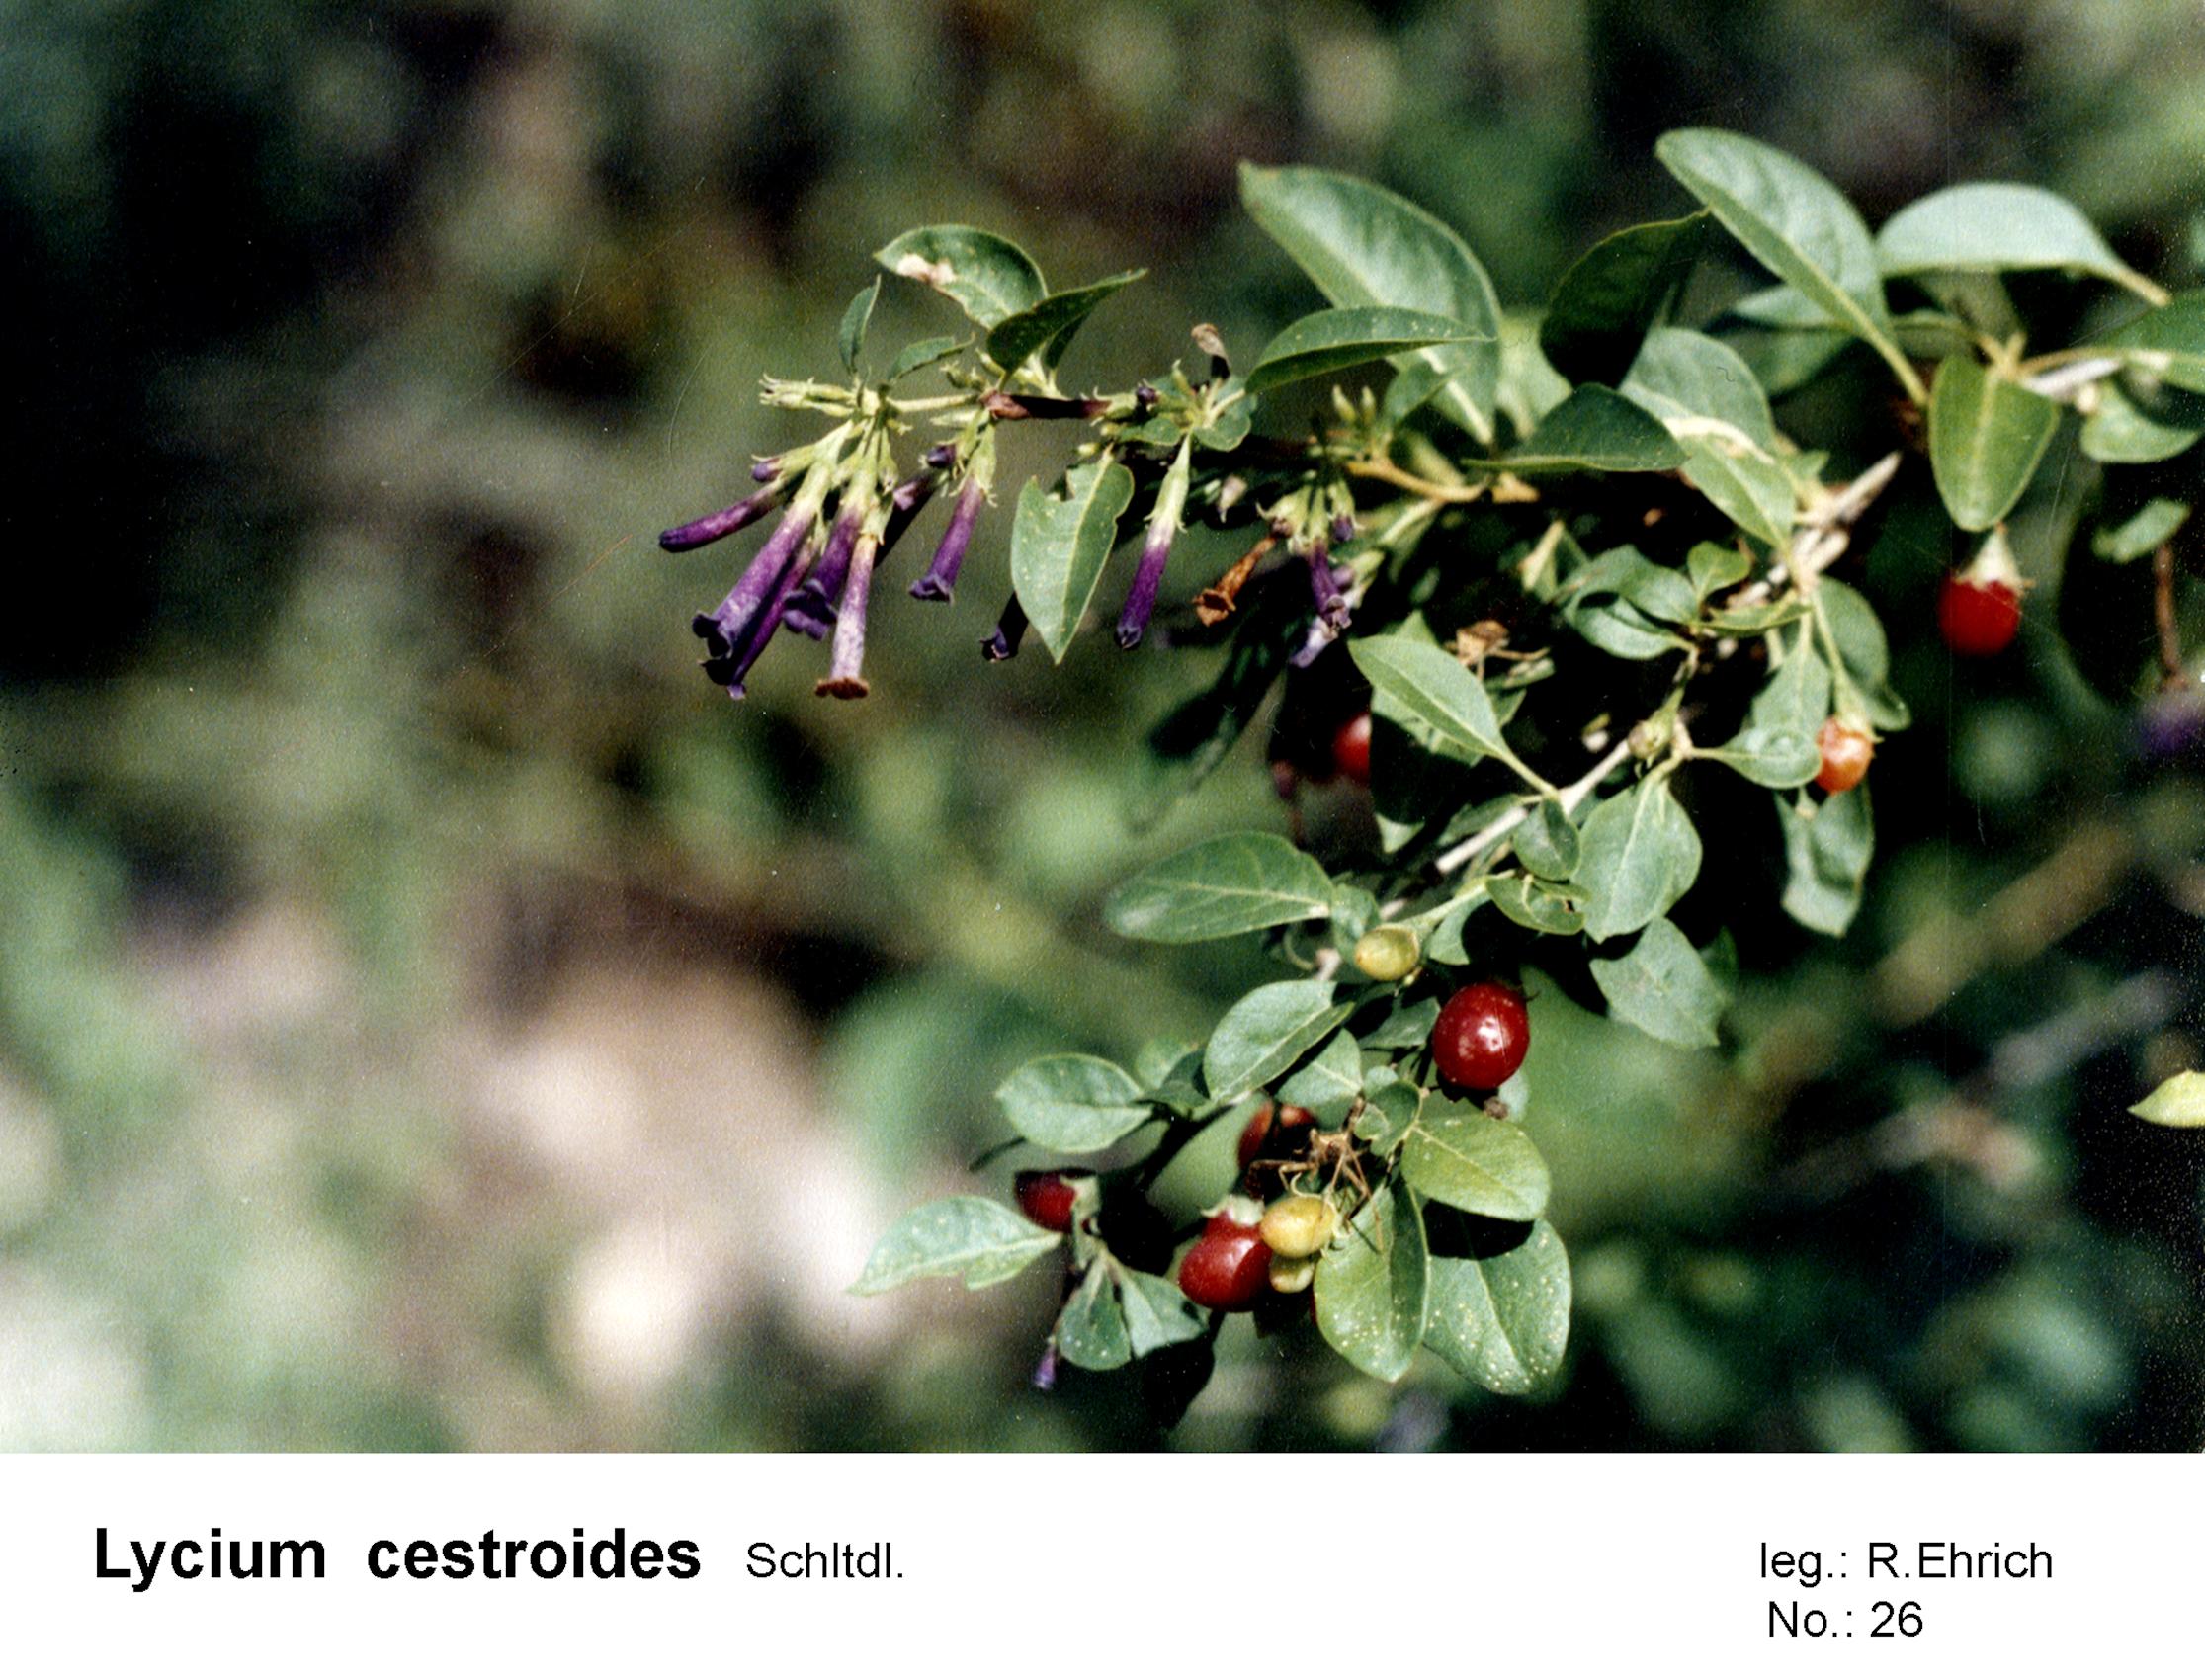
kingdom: Plantae
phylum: Tracheophyta
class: Magnoliopsida
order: Solanales
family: Solanaceae
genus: Lycium
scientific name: Lycium cestroides
